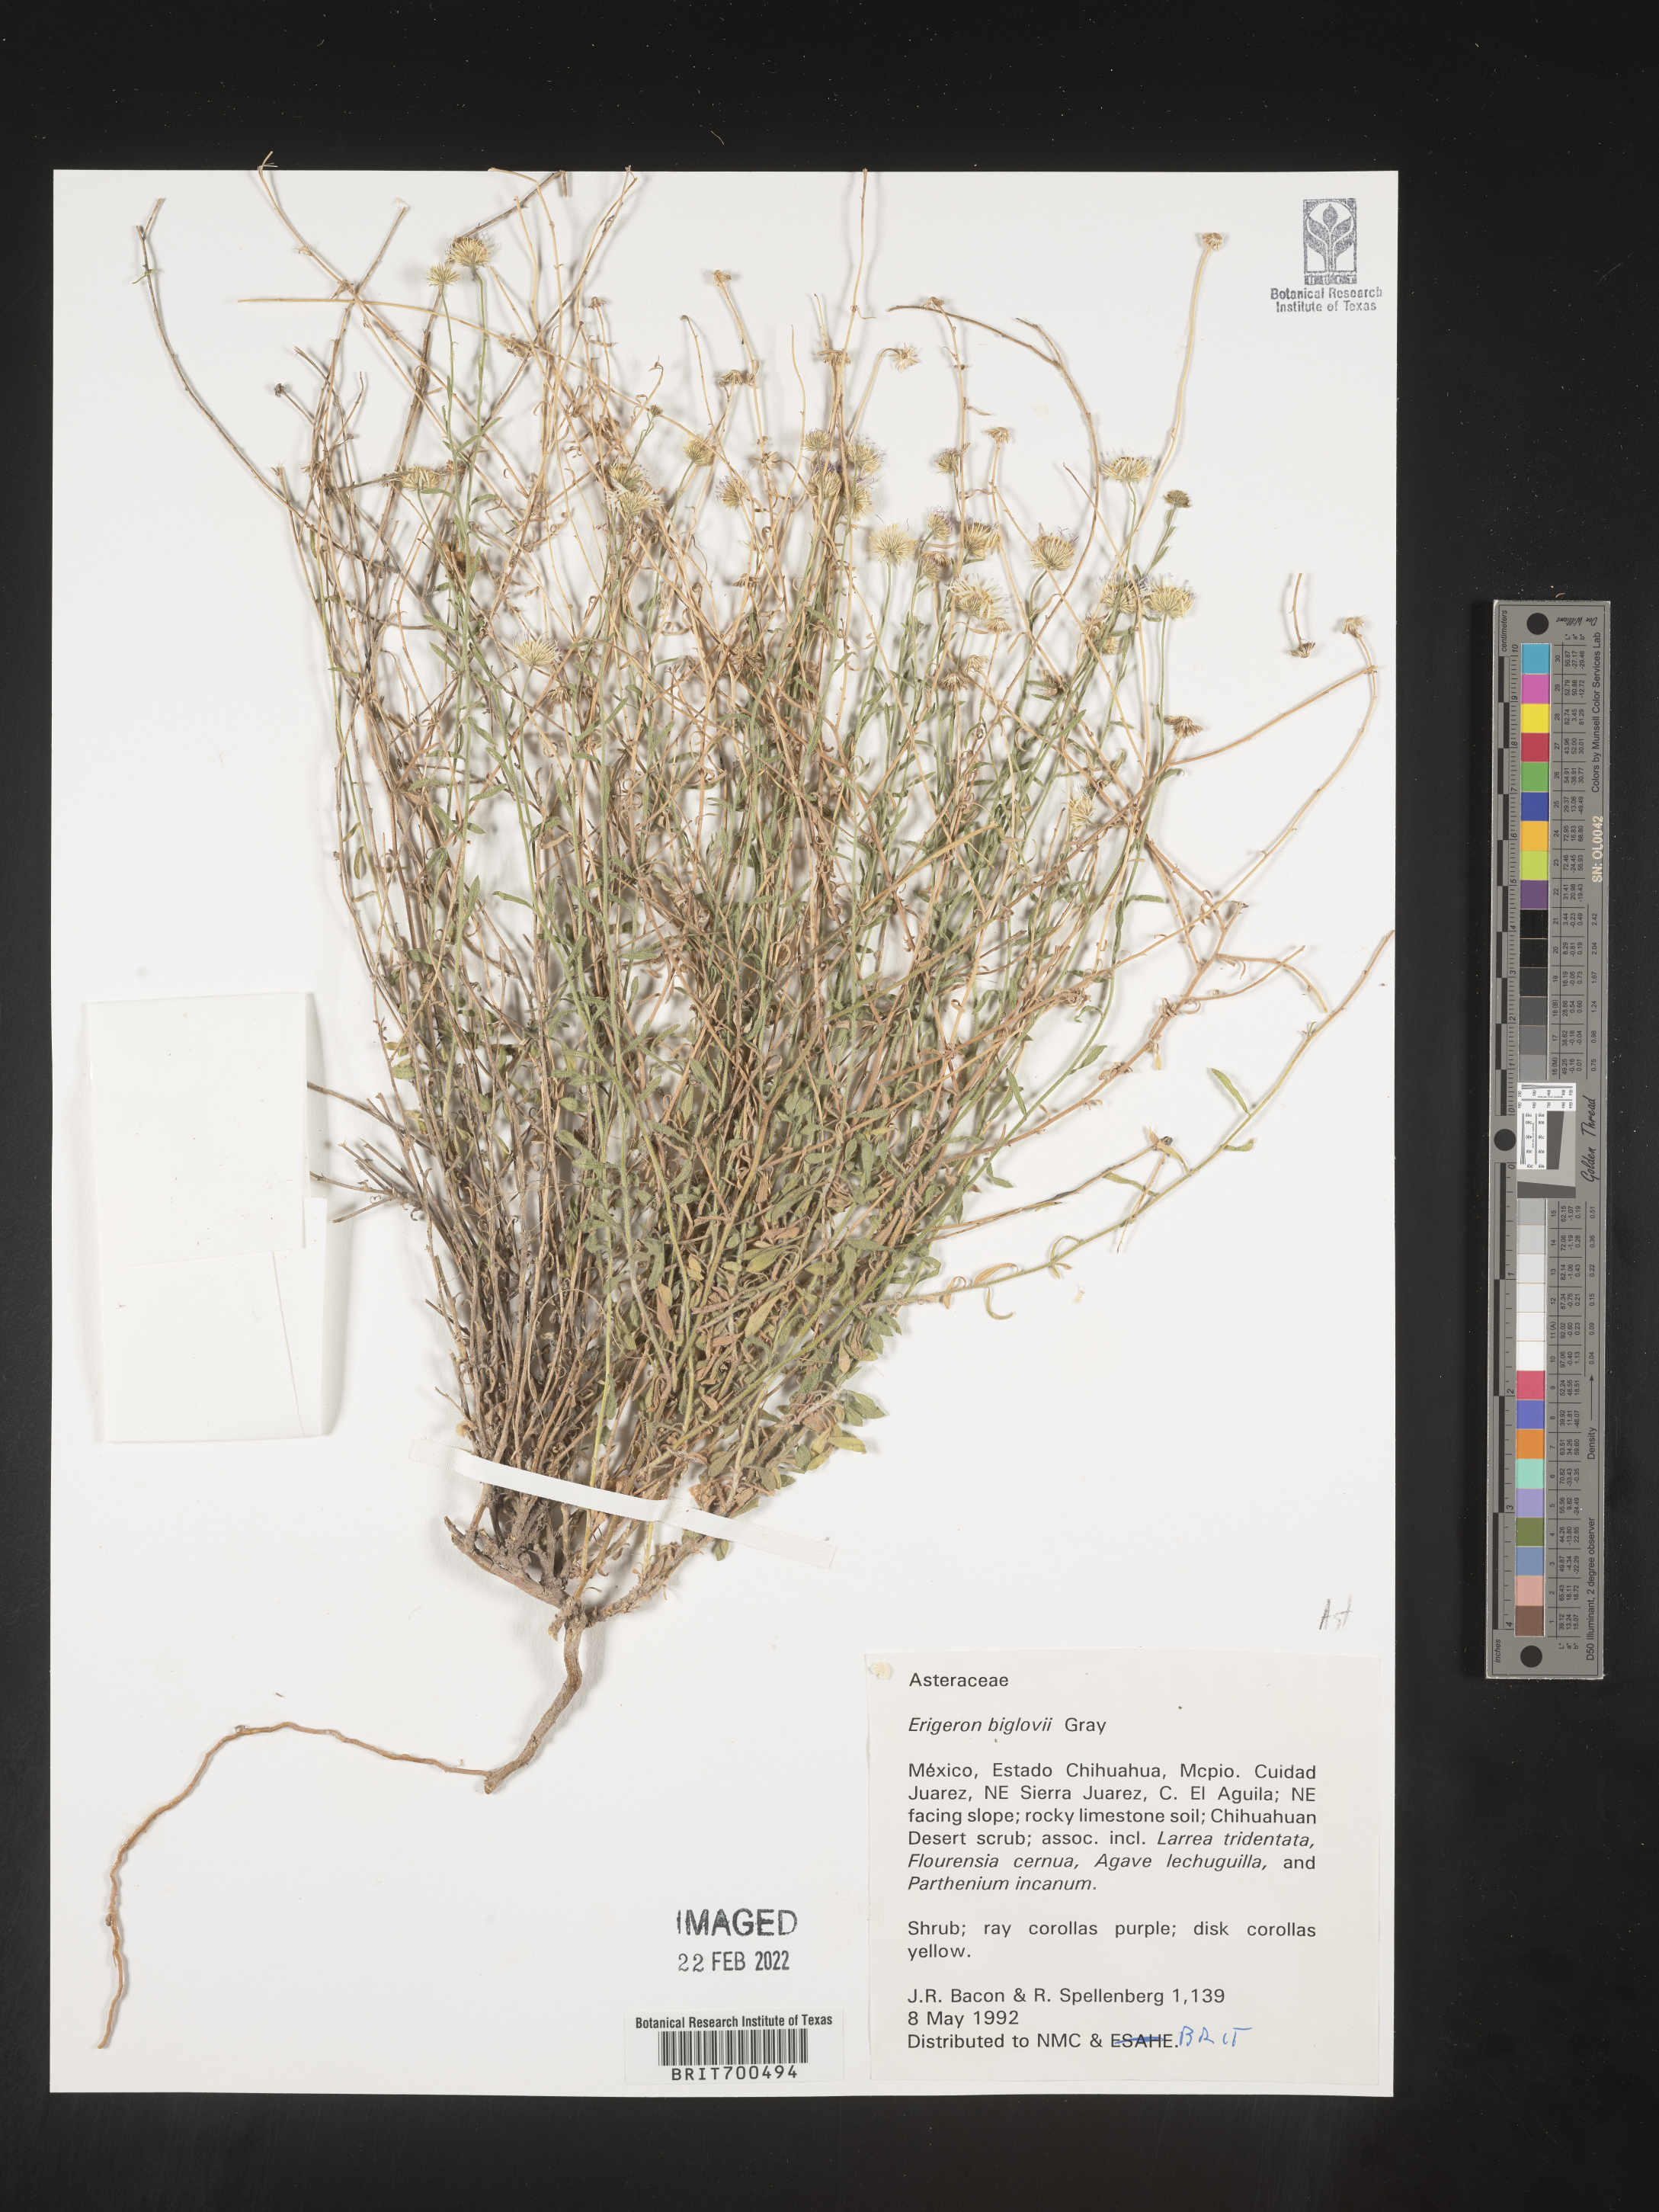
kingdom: Plantae
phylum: Tracheophyta
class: Magnoliopsida
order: Asterales
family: Asteraceae
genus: Erigeron
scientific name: Erigeron
